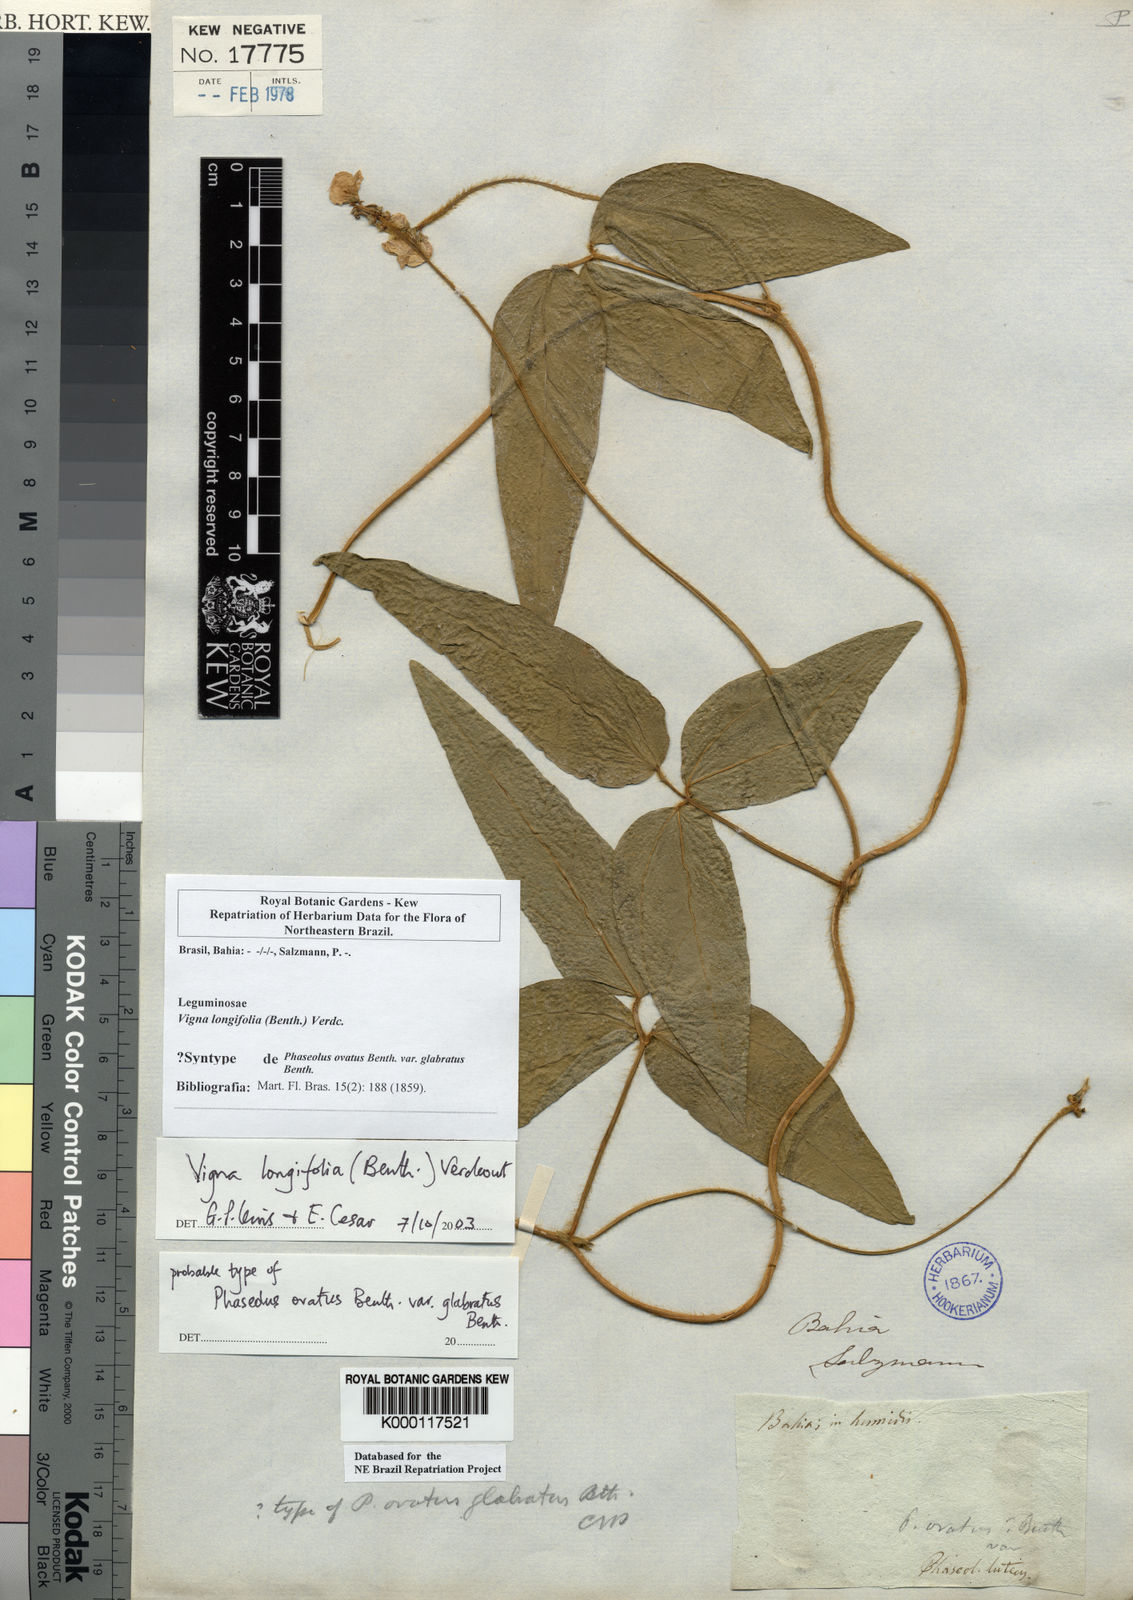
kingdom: Plantae
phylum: Tracheophyta
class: Magnoliopsida
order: Fabales
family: Fabaceae
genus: Vigna
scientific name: Vigna longifolia
